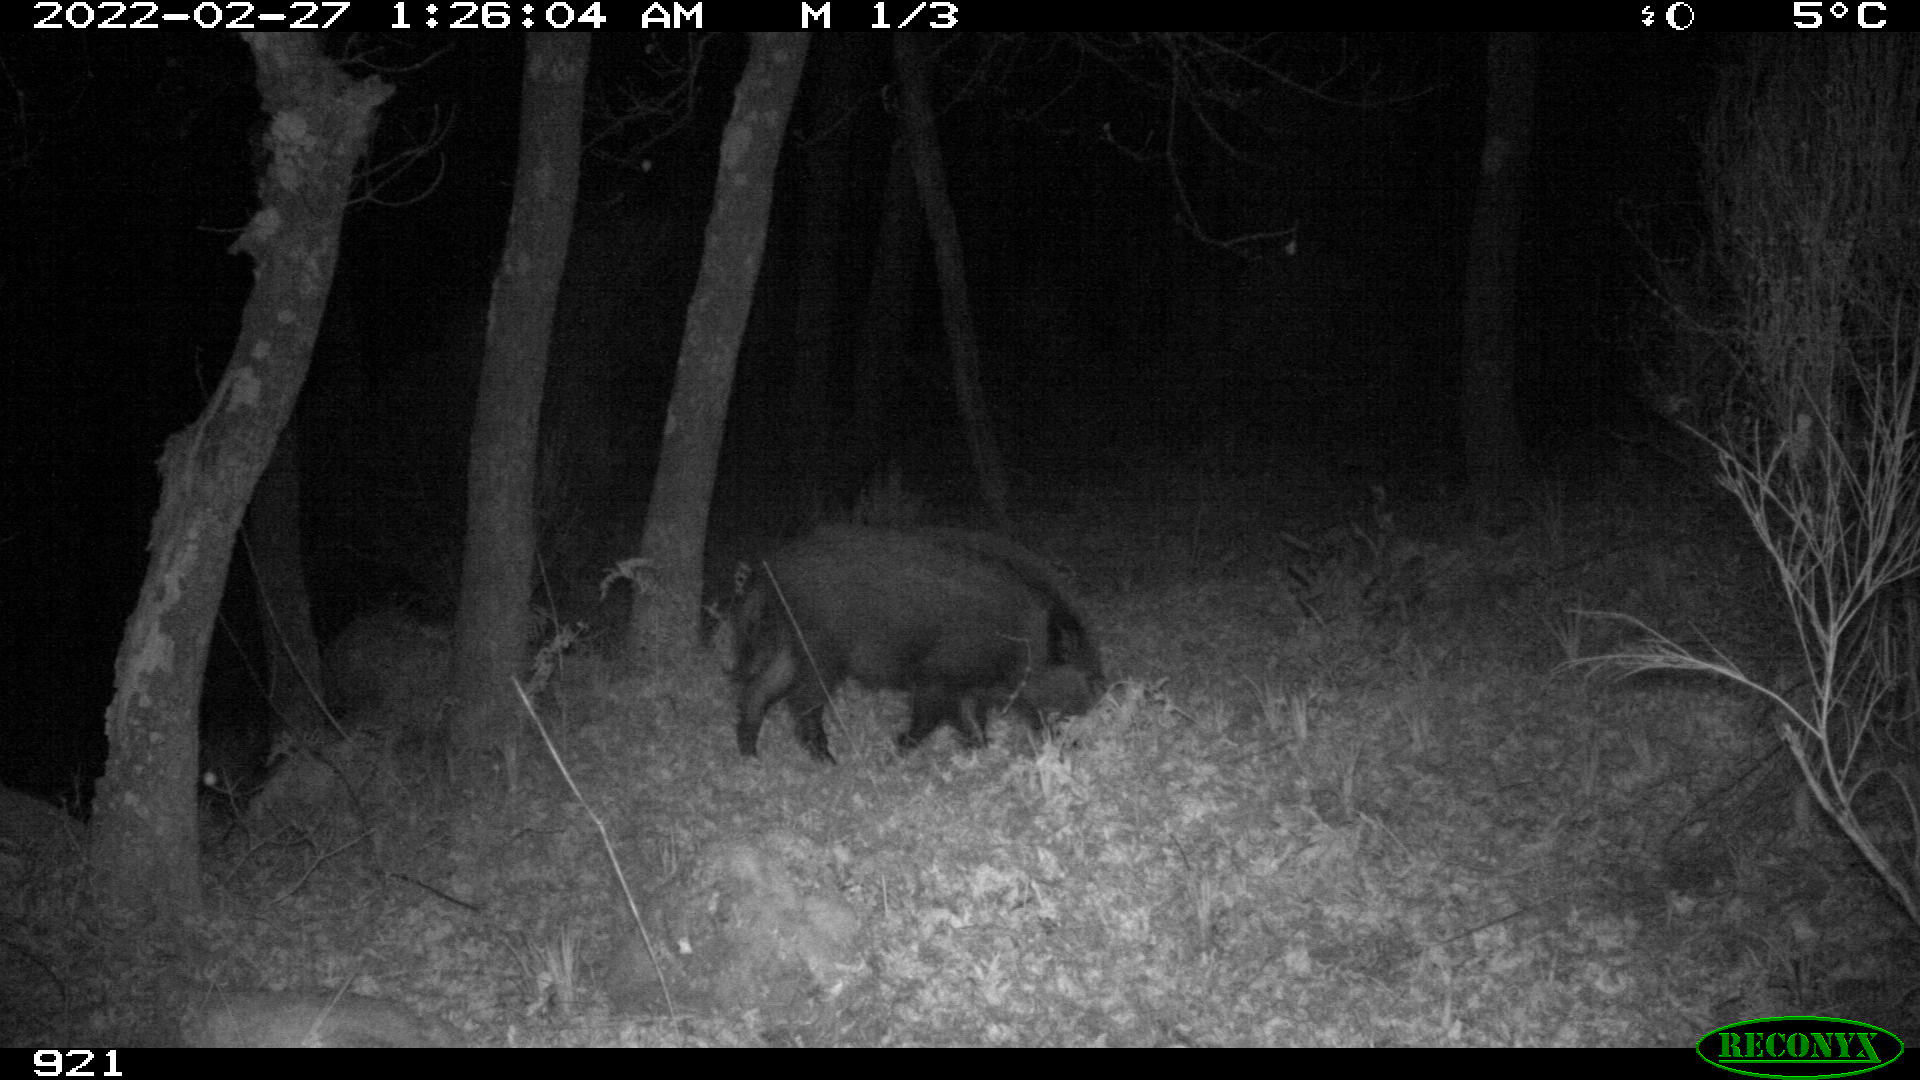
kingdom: Animalia
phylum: Chordata
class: Mammalia
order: Artiodactyla
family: Suidae
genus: Sus
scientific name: Sus scrofa
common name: Wild boar
